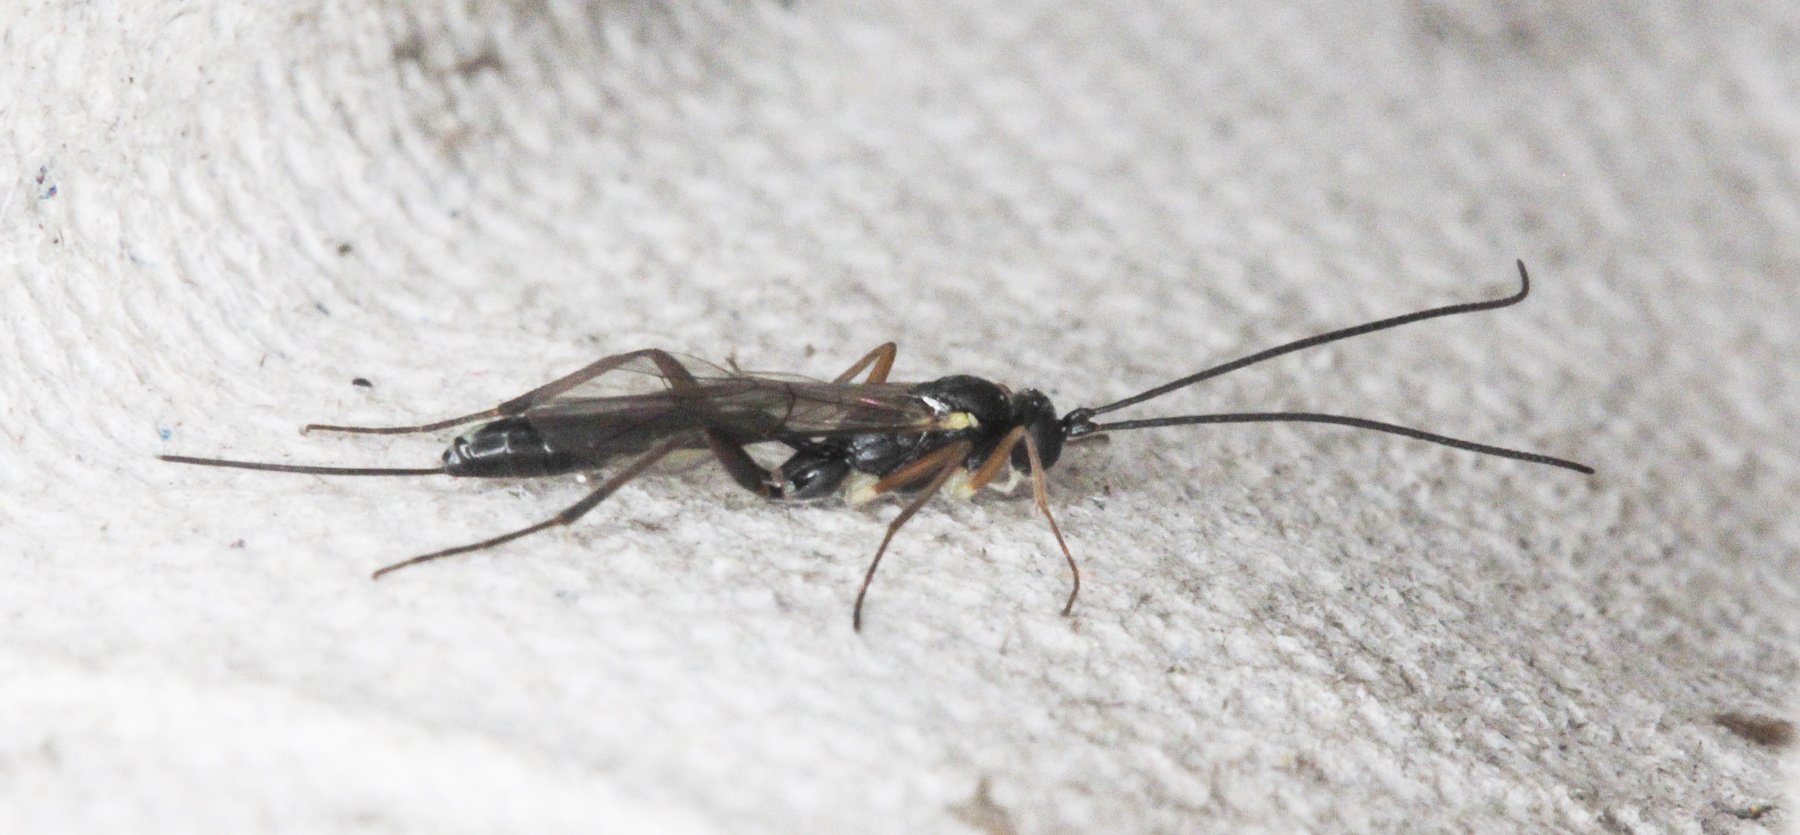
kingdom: Animalia
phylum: Arthropoda
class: Insecta
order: Hymenoptera
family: Ichneumonidae
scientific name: Ichneumonidae
